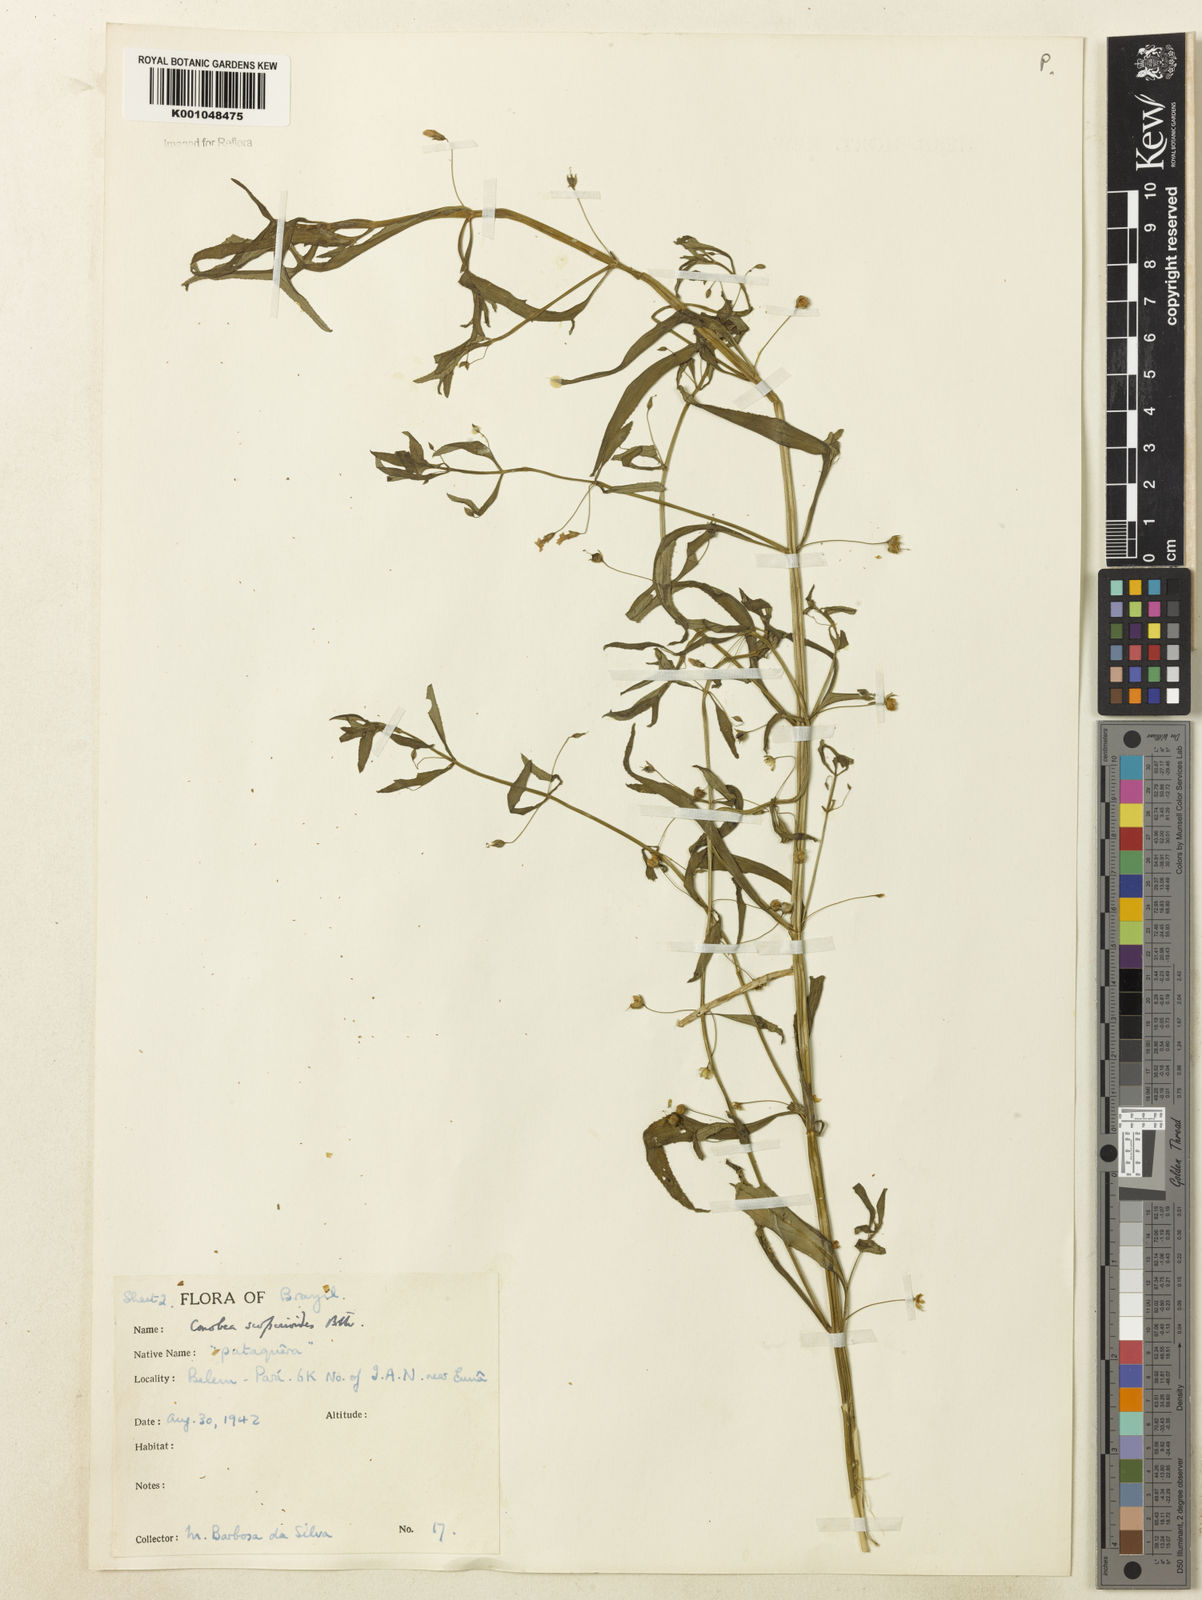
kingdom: Plantae
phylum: Tracheophyta
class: Magnoliopsida
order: Lamiales
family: Plantaginaceae
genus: Conobea
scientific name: Conobea scoparioides
